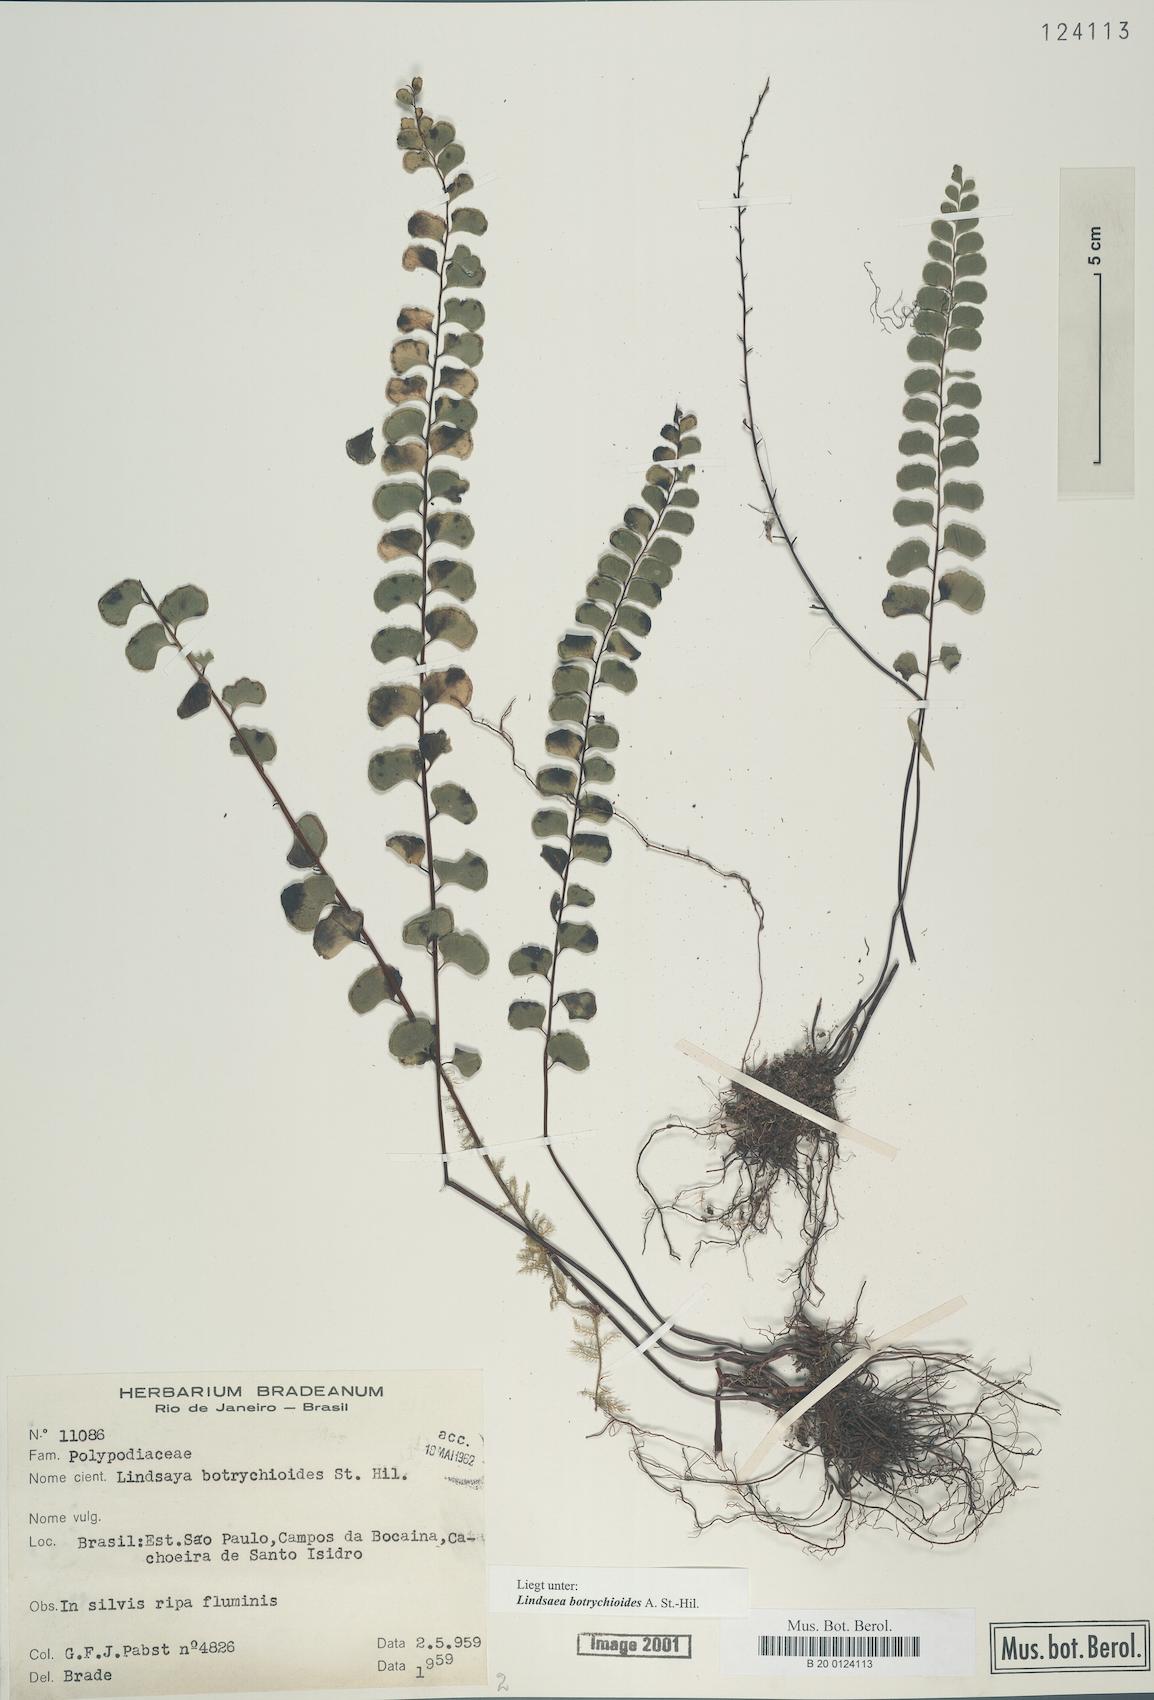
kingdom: Plantae
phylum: Tracheophyta
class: Polypodiopsida
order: Polypodiales
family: Lindsaeaceae
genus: Lindsaea
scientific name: Lindsaea botrychioides
